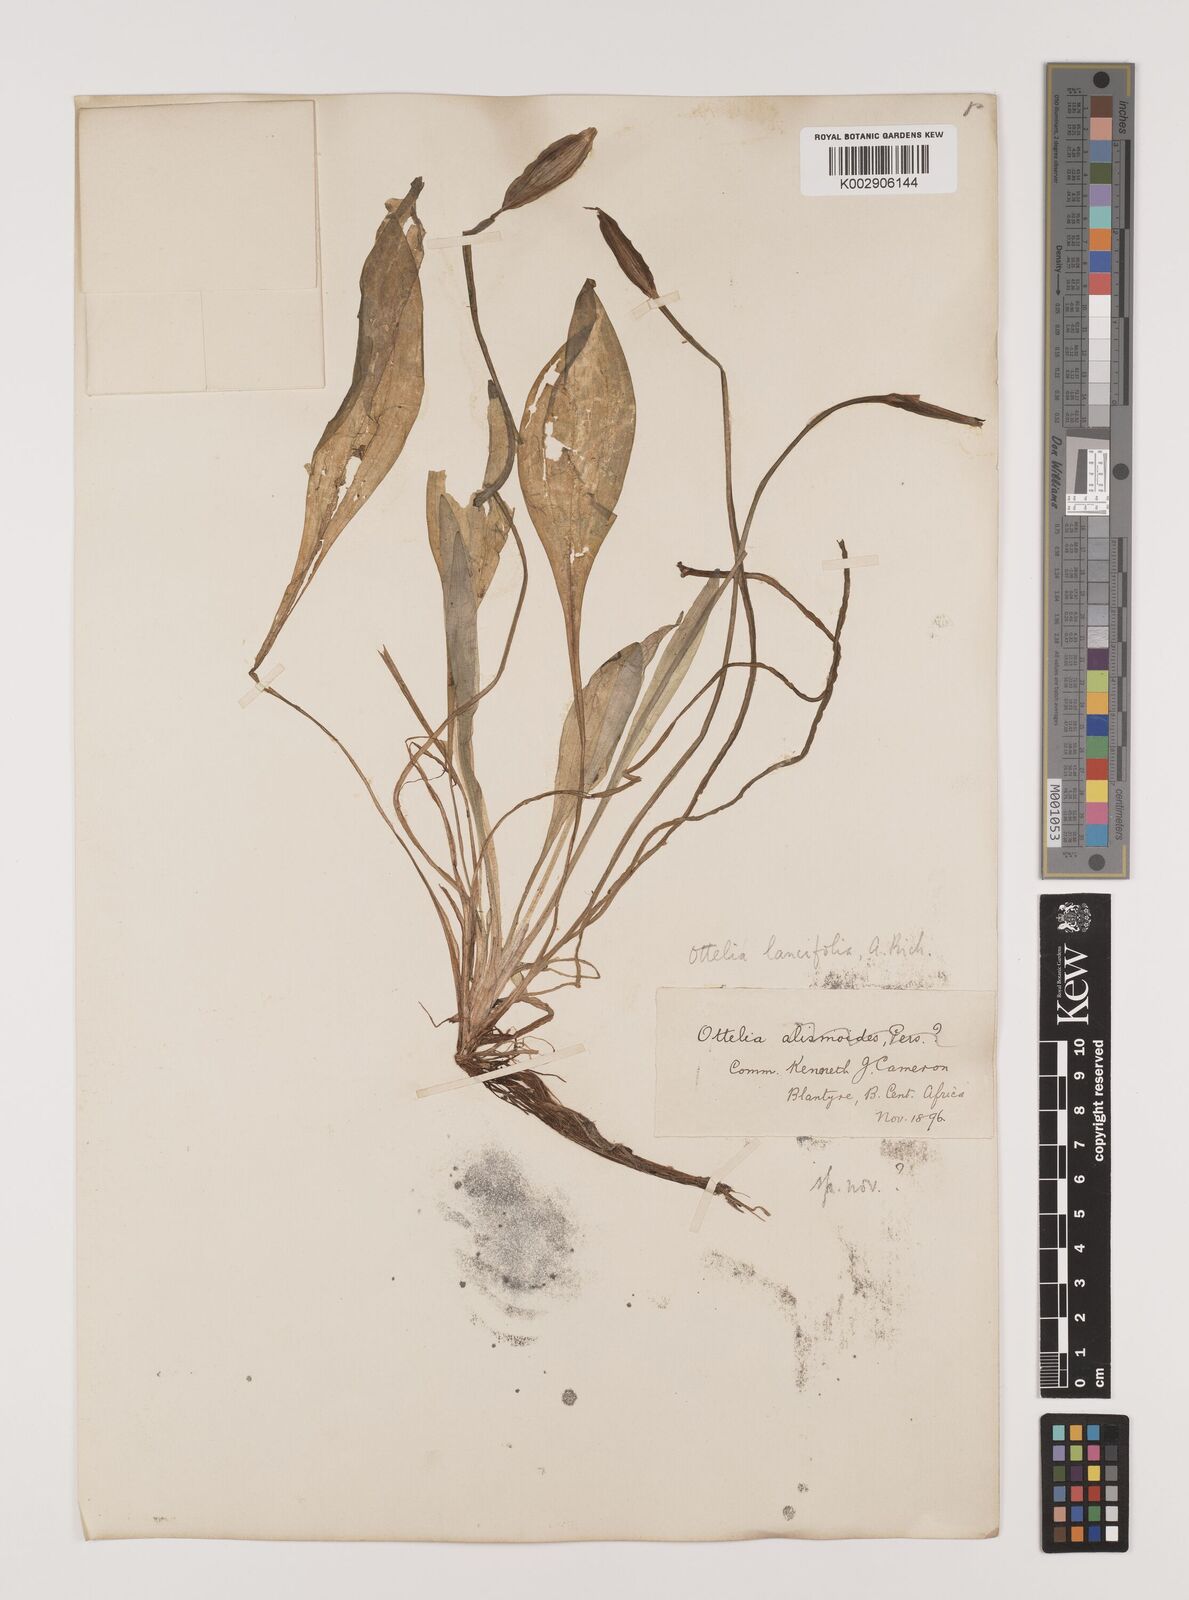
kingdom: Plantae
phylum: Tracheophyta
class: Liliopsida
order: Alismatales
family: Hydrocharitaceae
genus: Ottelia
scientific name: Ottelia ulvifolia
